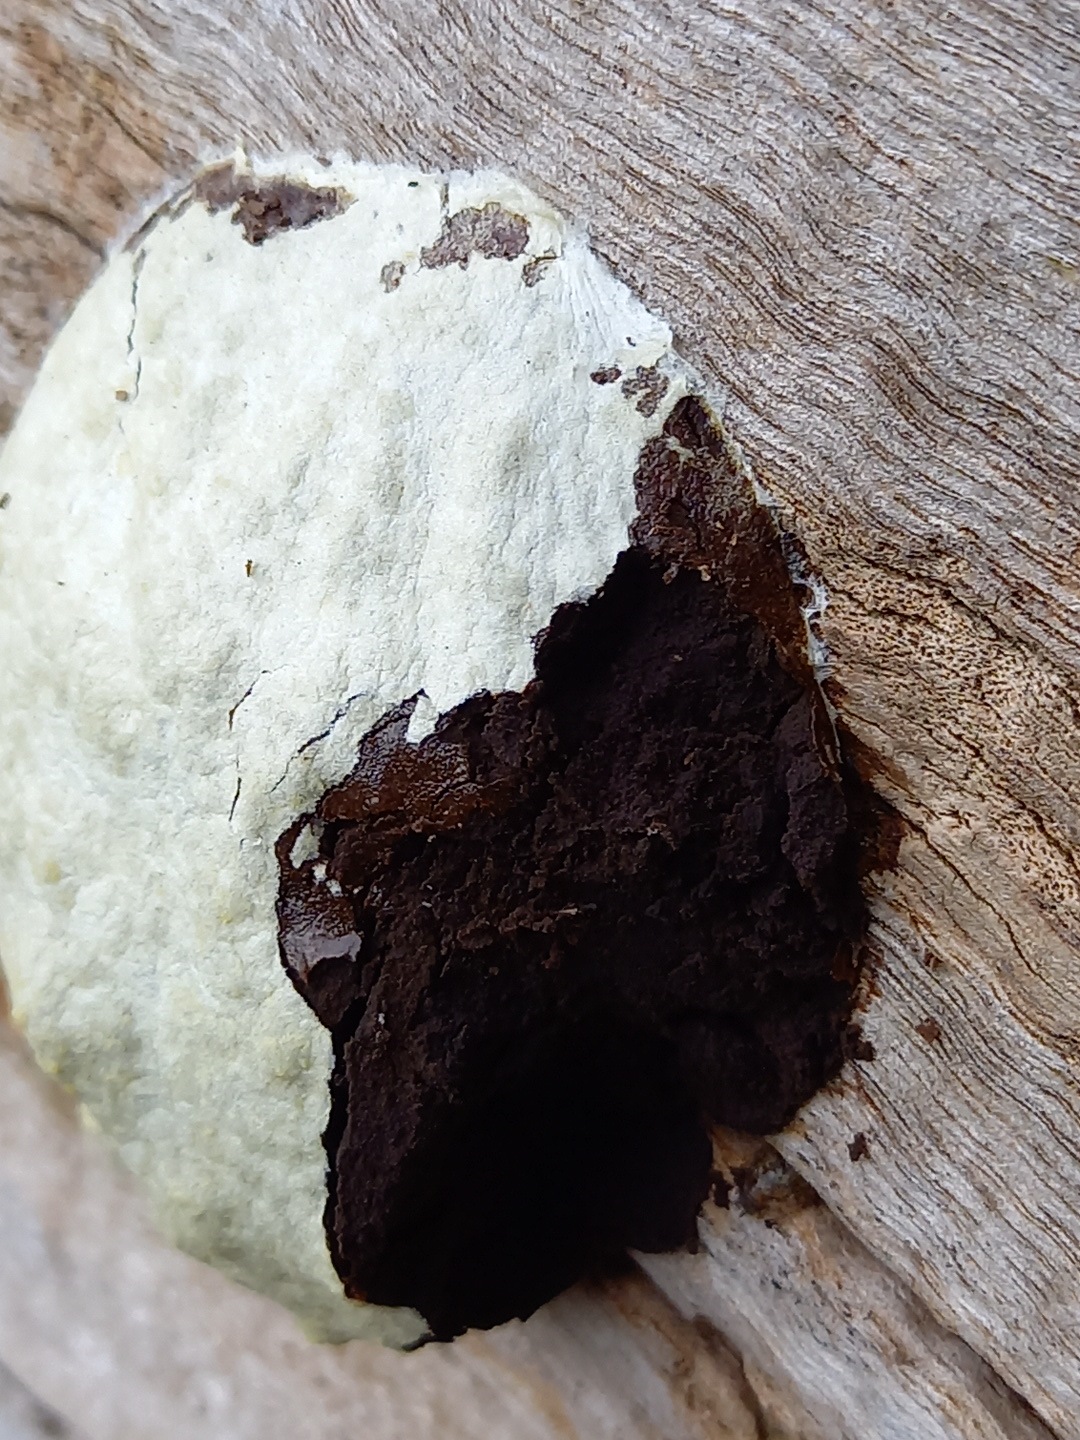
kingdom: Protozoa
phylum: Mycetozoa
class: Myxomycetes
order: Cribrariales
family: Tubiferaceae
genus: Reticularia
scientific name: Reticularia lycoperdon
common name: skinnende støvpude
